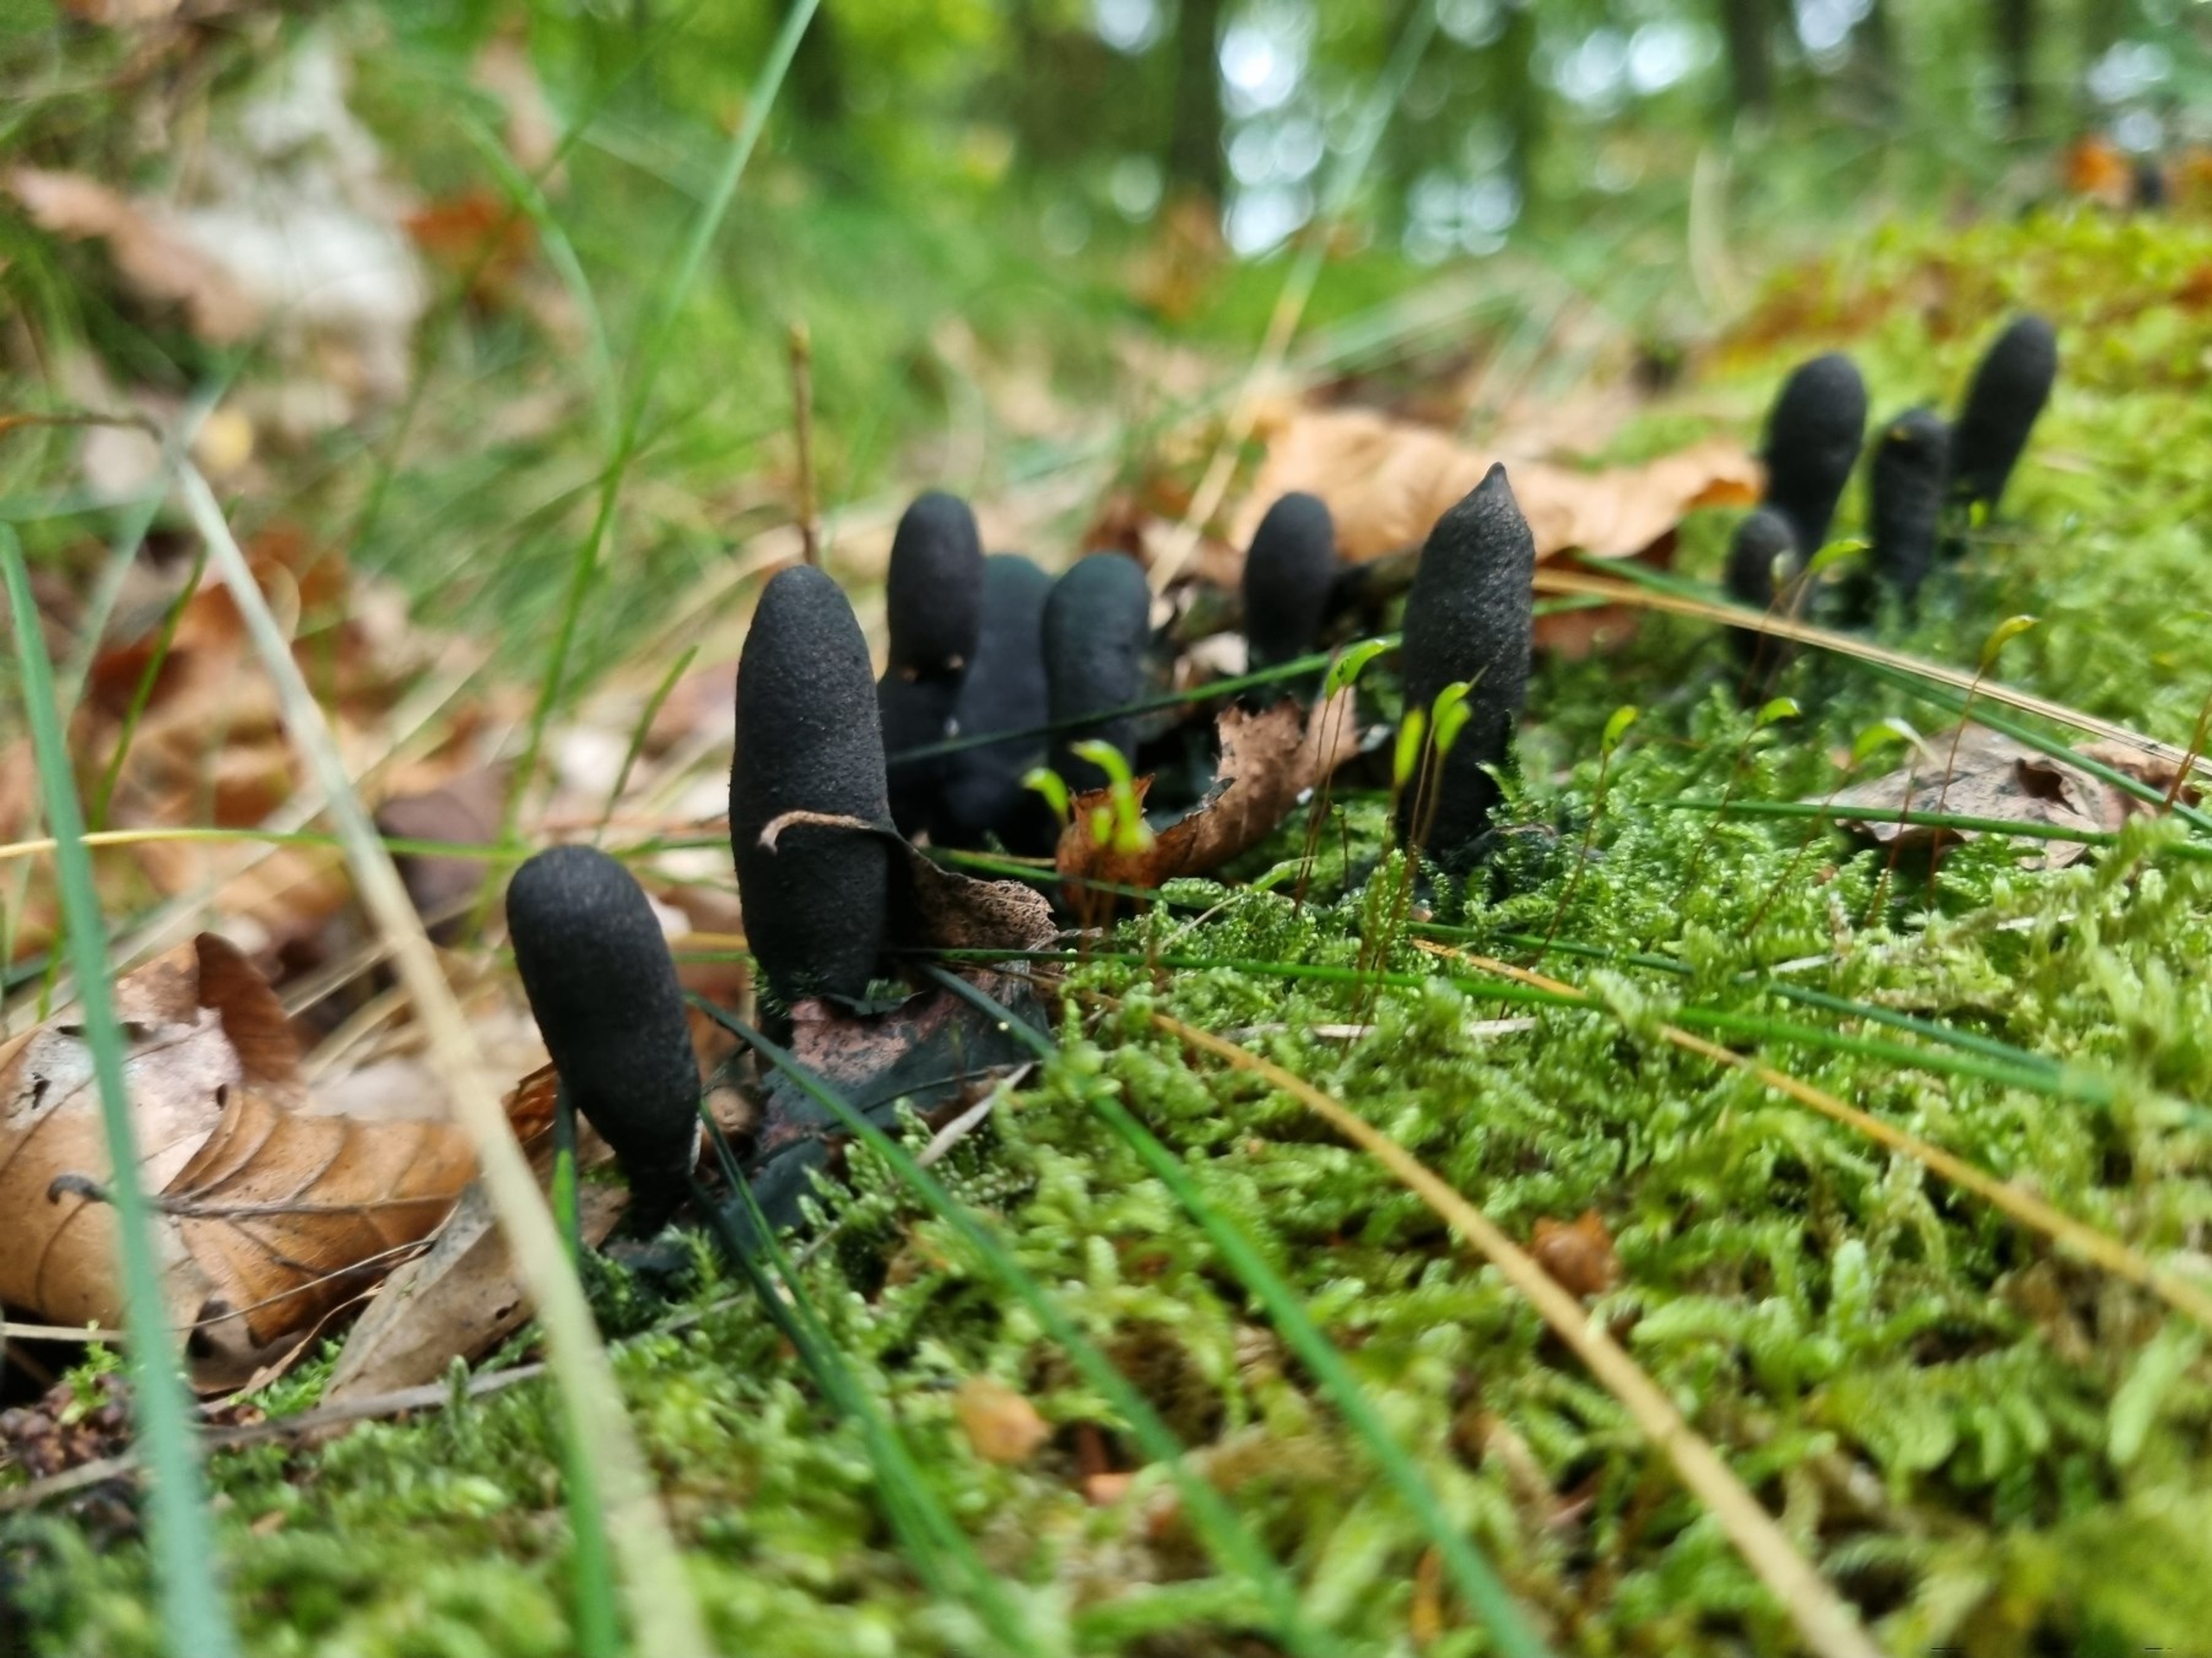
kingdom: Fungi
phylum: Ascomycota
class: Sordariomycetes
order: Xylariales
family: Xylariaceae
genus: Xylaria
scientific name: Xylaria polymorpha
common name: Kølle-stødsvamp
